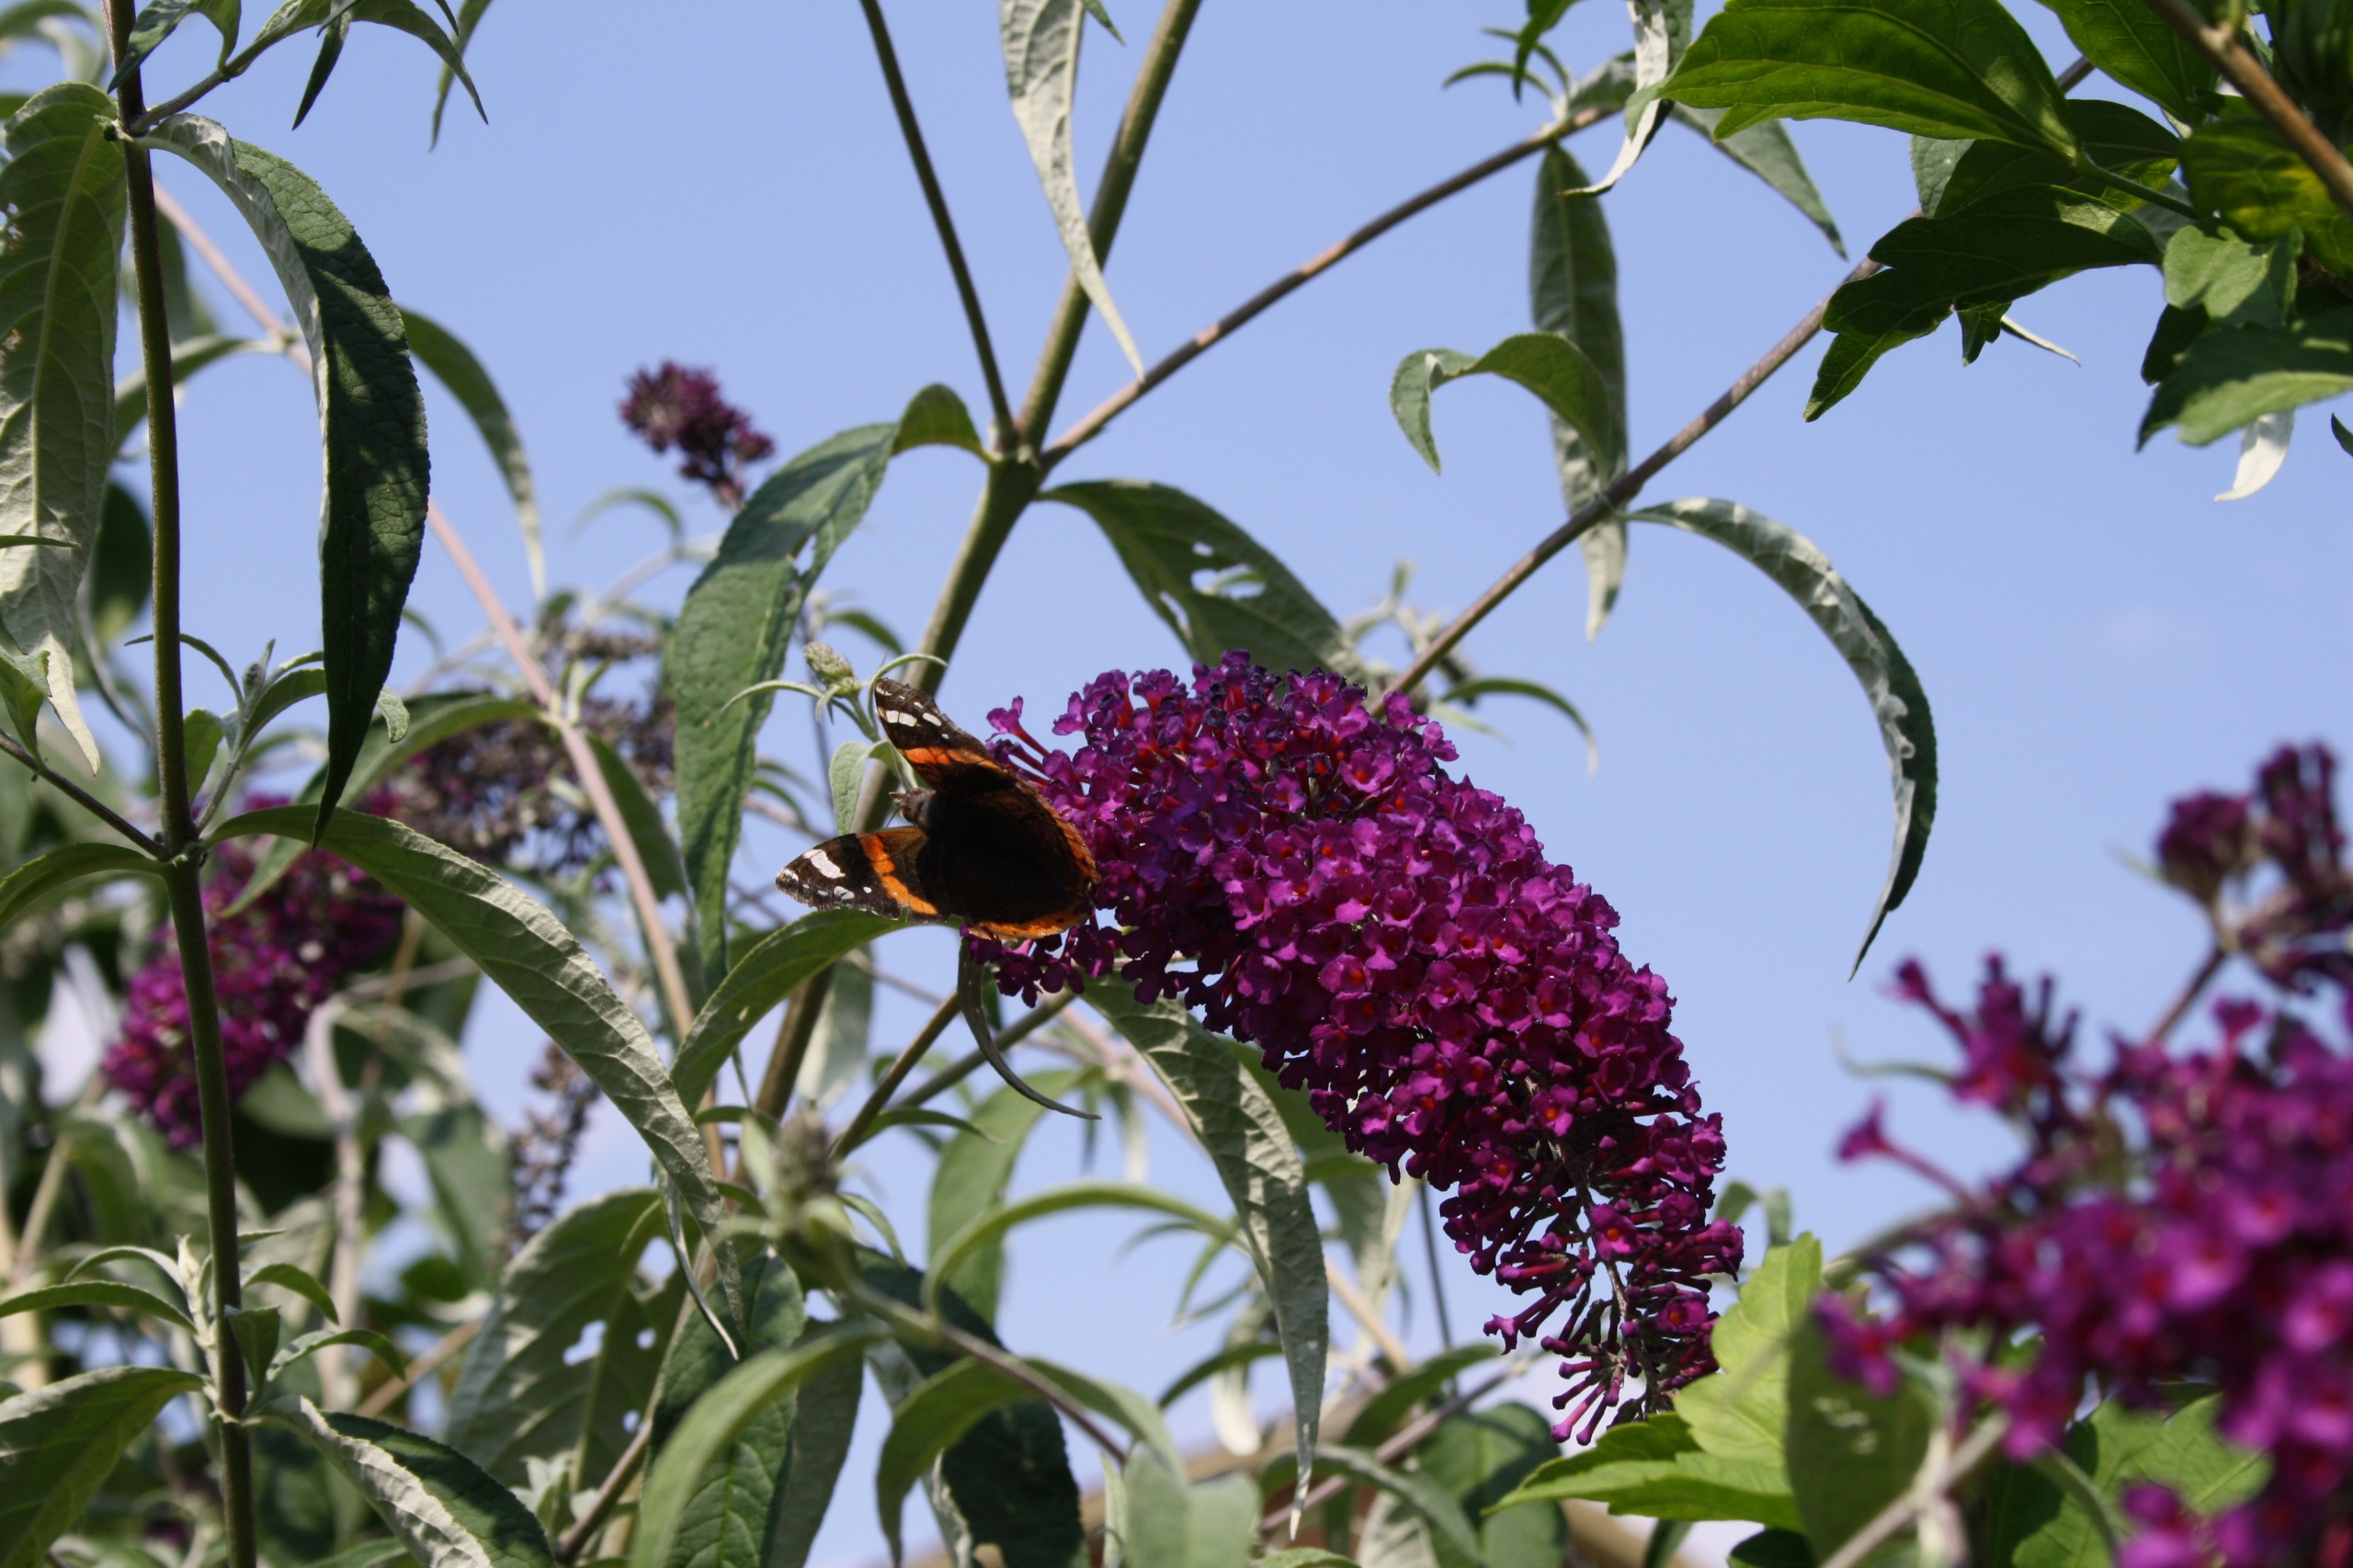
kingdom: Animalia
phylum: Arthropoda
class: Insecta
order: Lepidoptera
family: Nymphalidae
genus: Vanessa
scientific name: Vanessa atalanta
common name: Admiral
